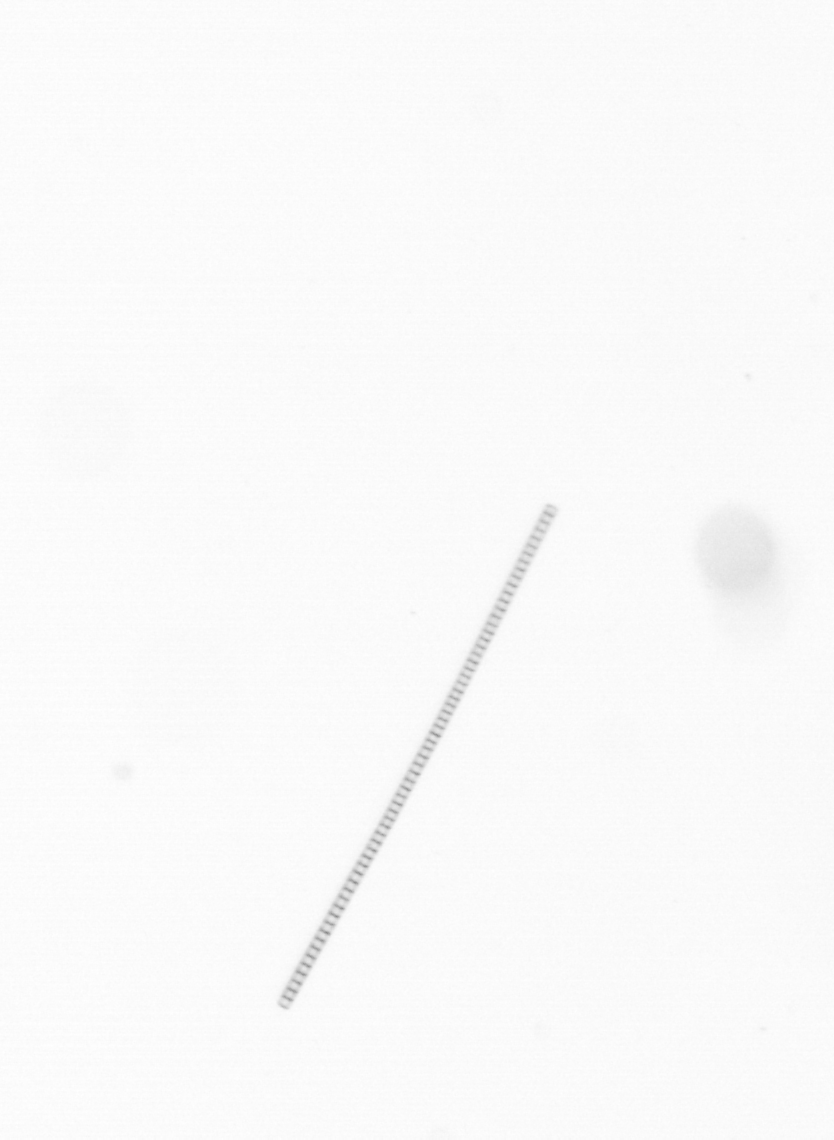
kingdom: Chromista
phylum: Ochrophyta
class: Bacillariophyceae
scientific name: Bacillariophyceae
